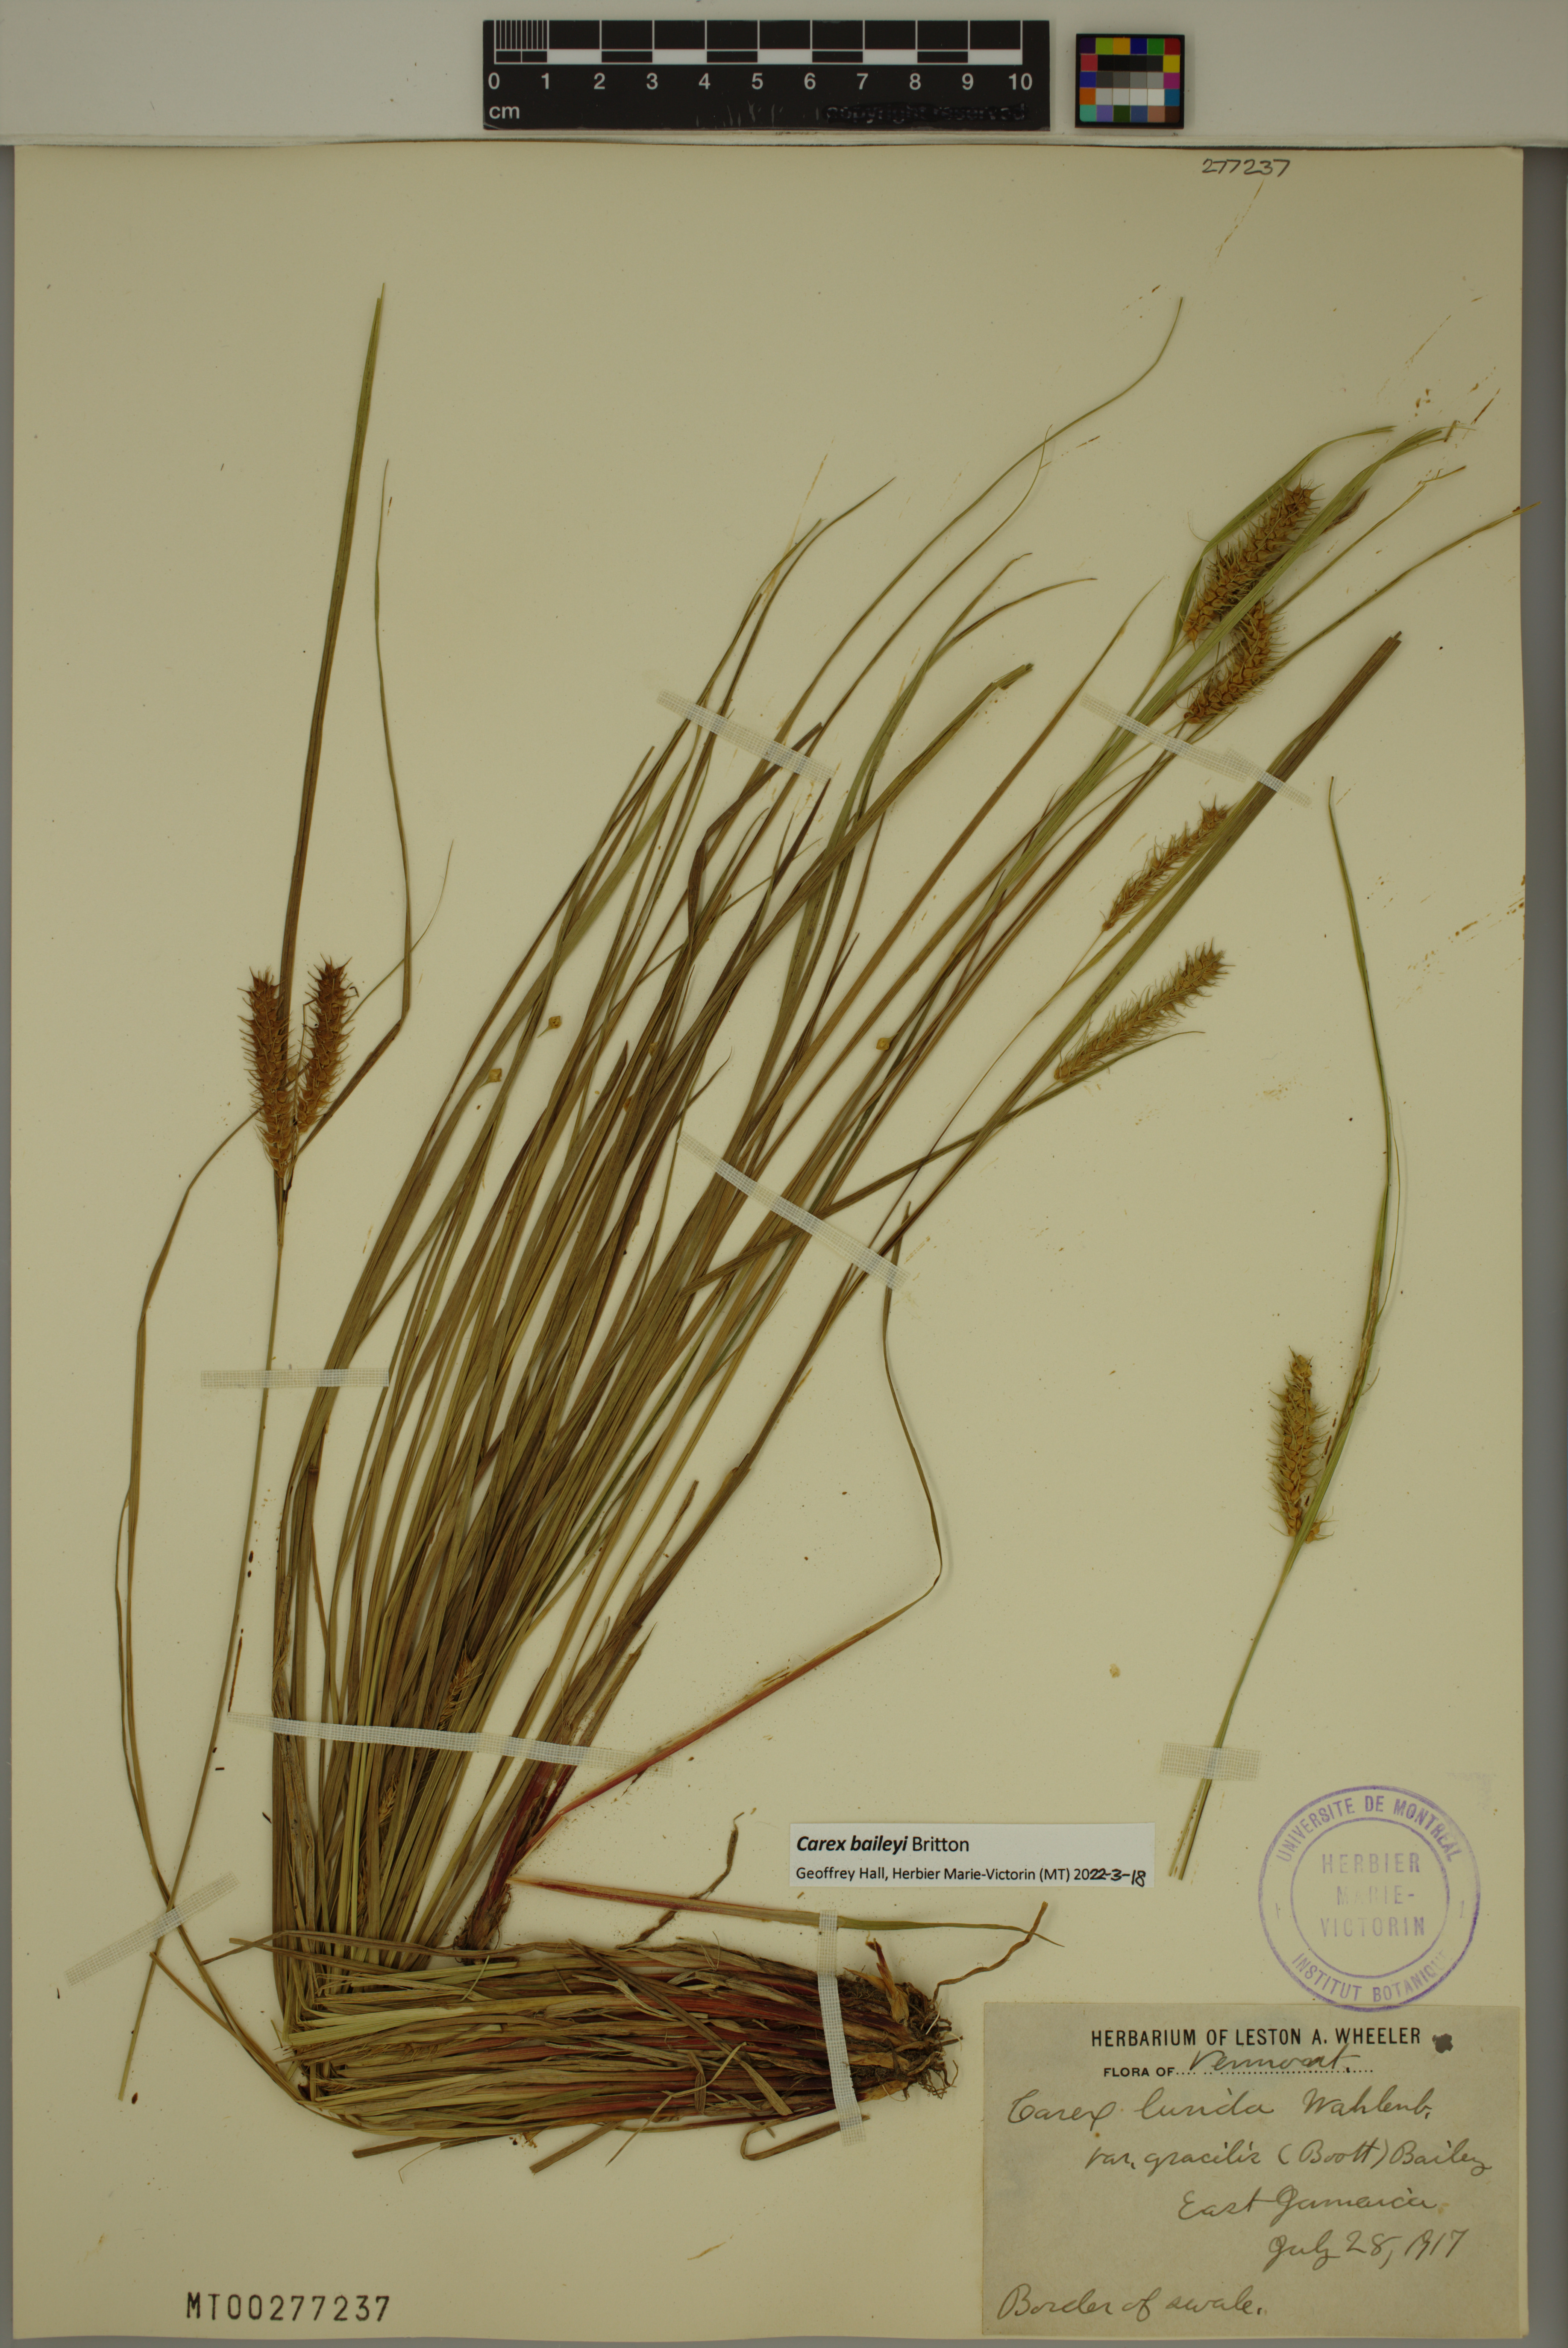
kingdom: Plantae
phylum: Tracheophyta
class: Liliopsida
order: Poales
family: Cyperaceae
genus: Carex
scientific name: Carex baileyi
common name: Bailey's sedge
